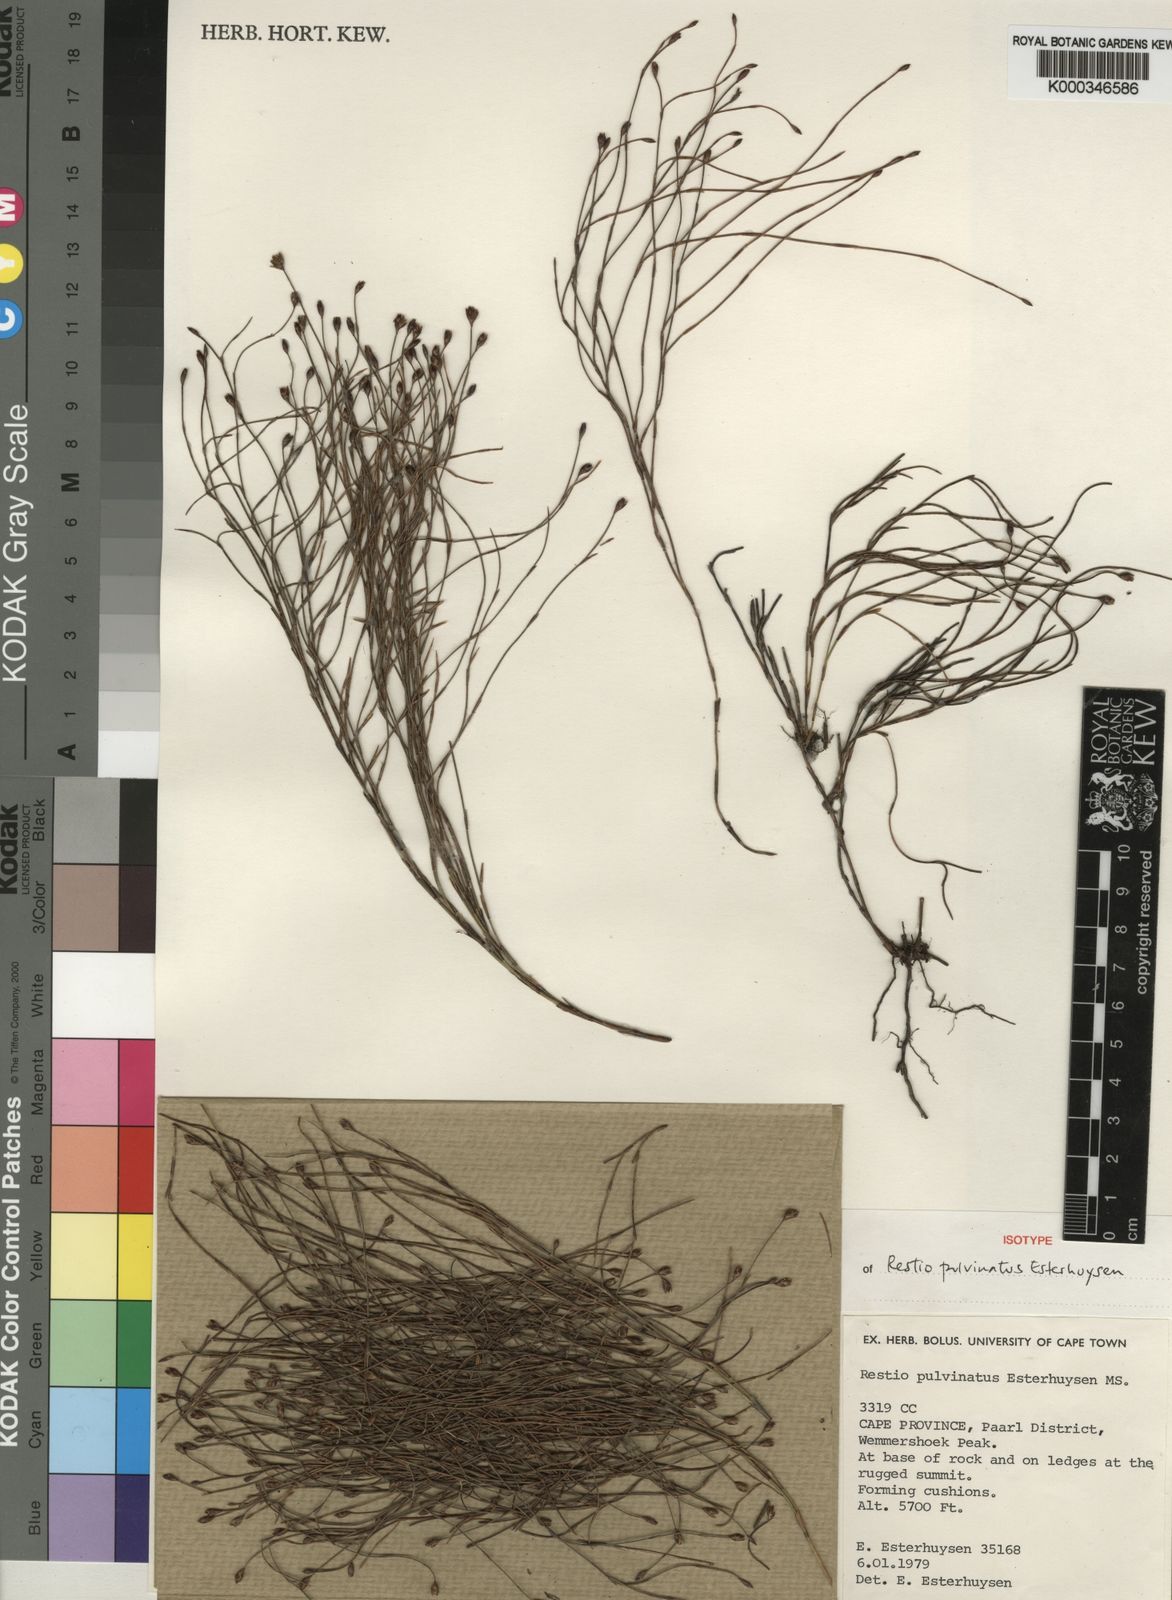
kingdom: Plantae
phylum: Tracheophyta
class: Liliopsida
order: Poales
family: Restionaceae
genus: Restio
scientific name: Restio pulvinatus
